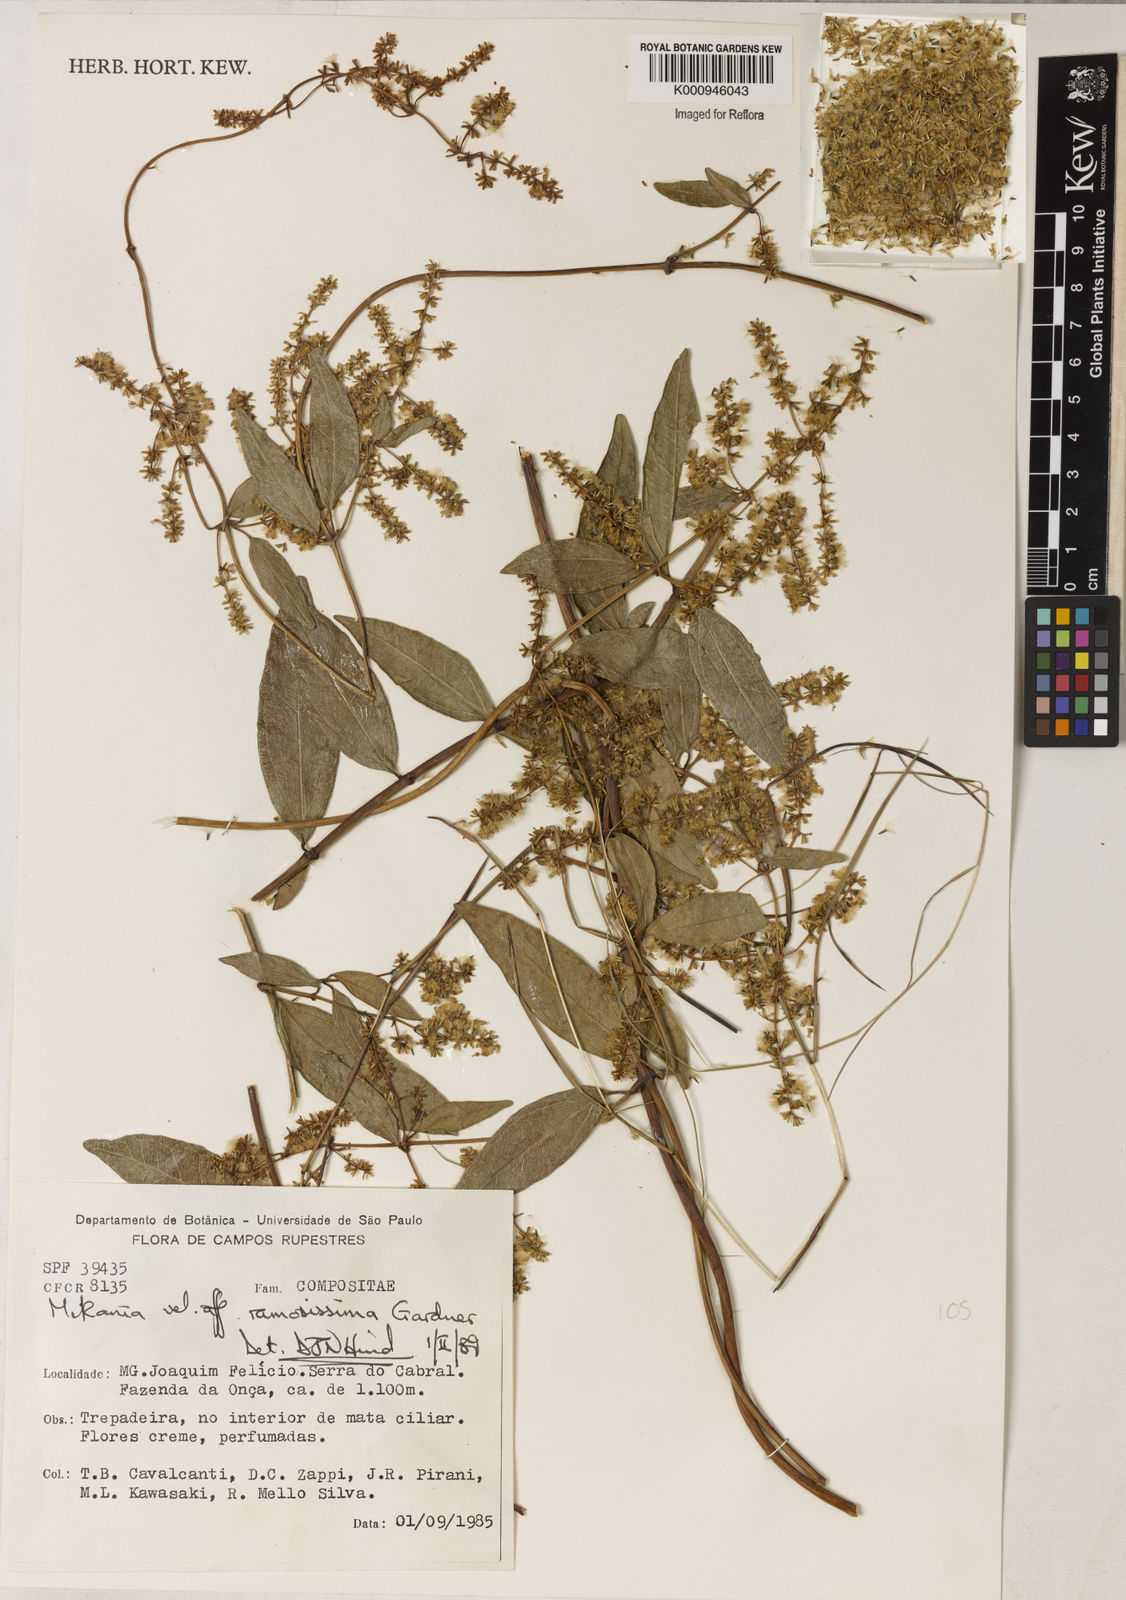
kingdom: Plantae
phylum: Tracheophyta
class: Magnoliopsida
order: Asterales
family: Asteraceae
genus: Mikania
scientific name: Mikania ramosissima
